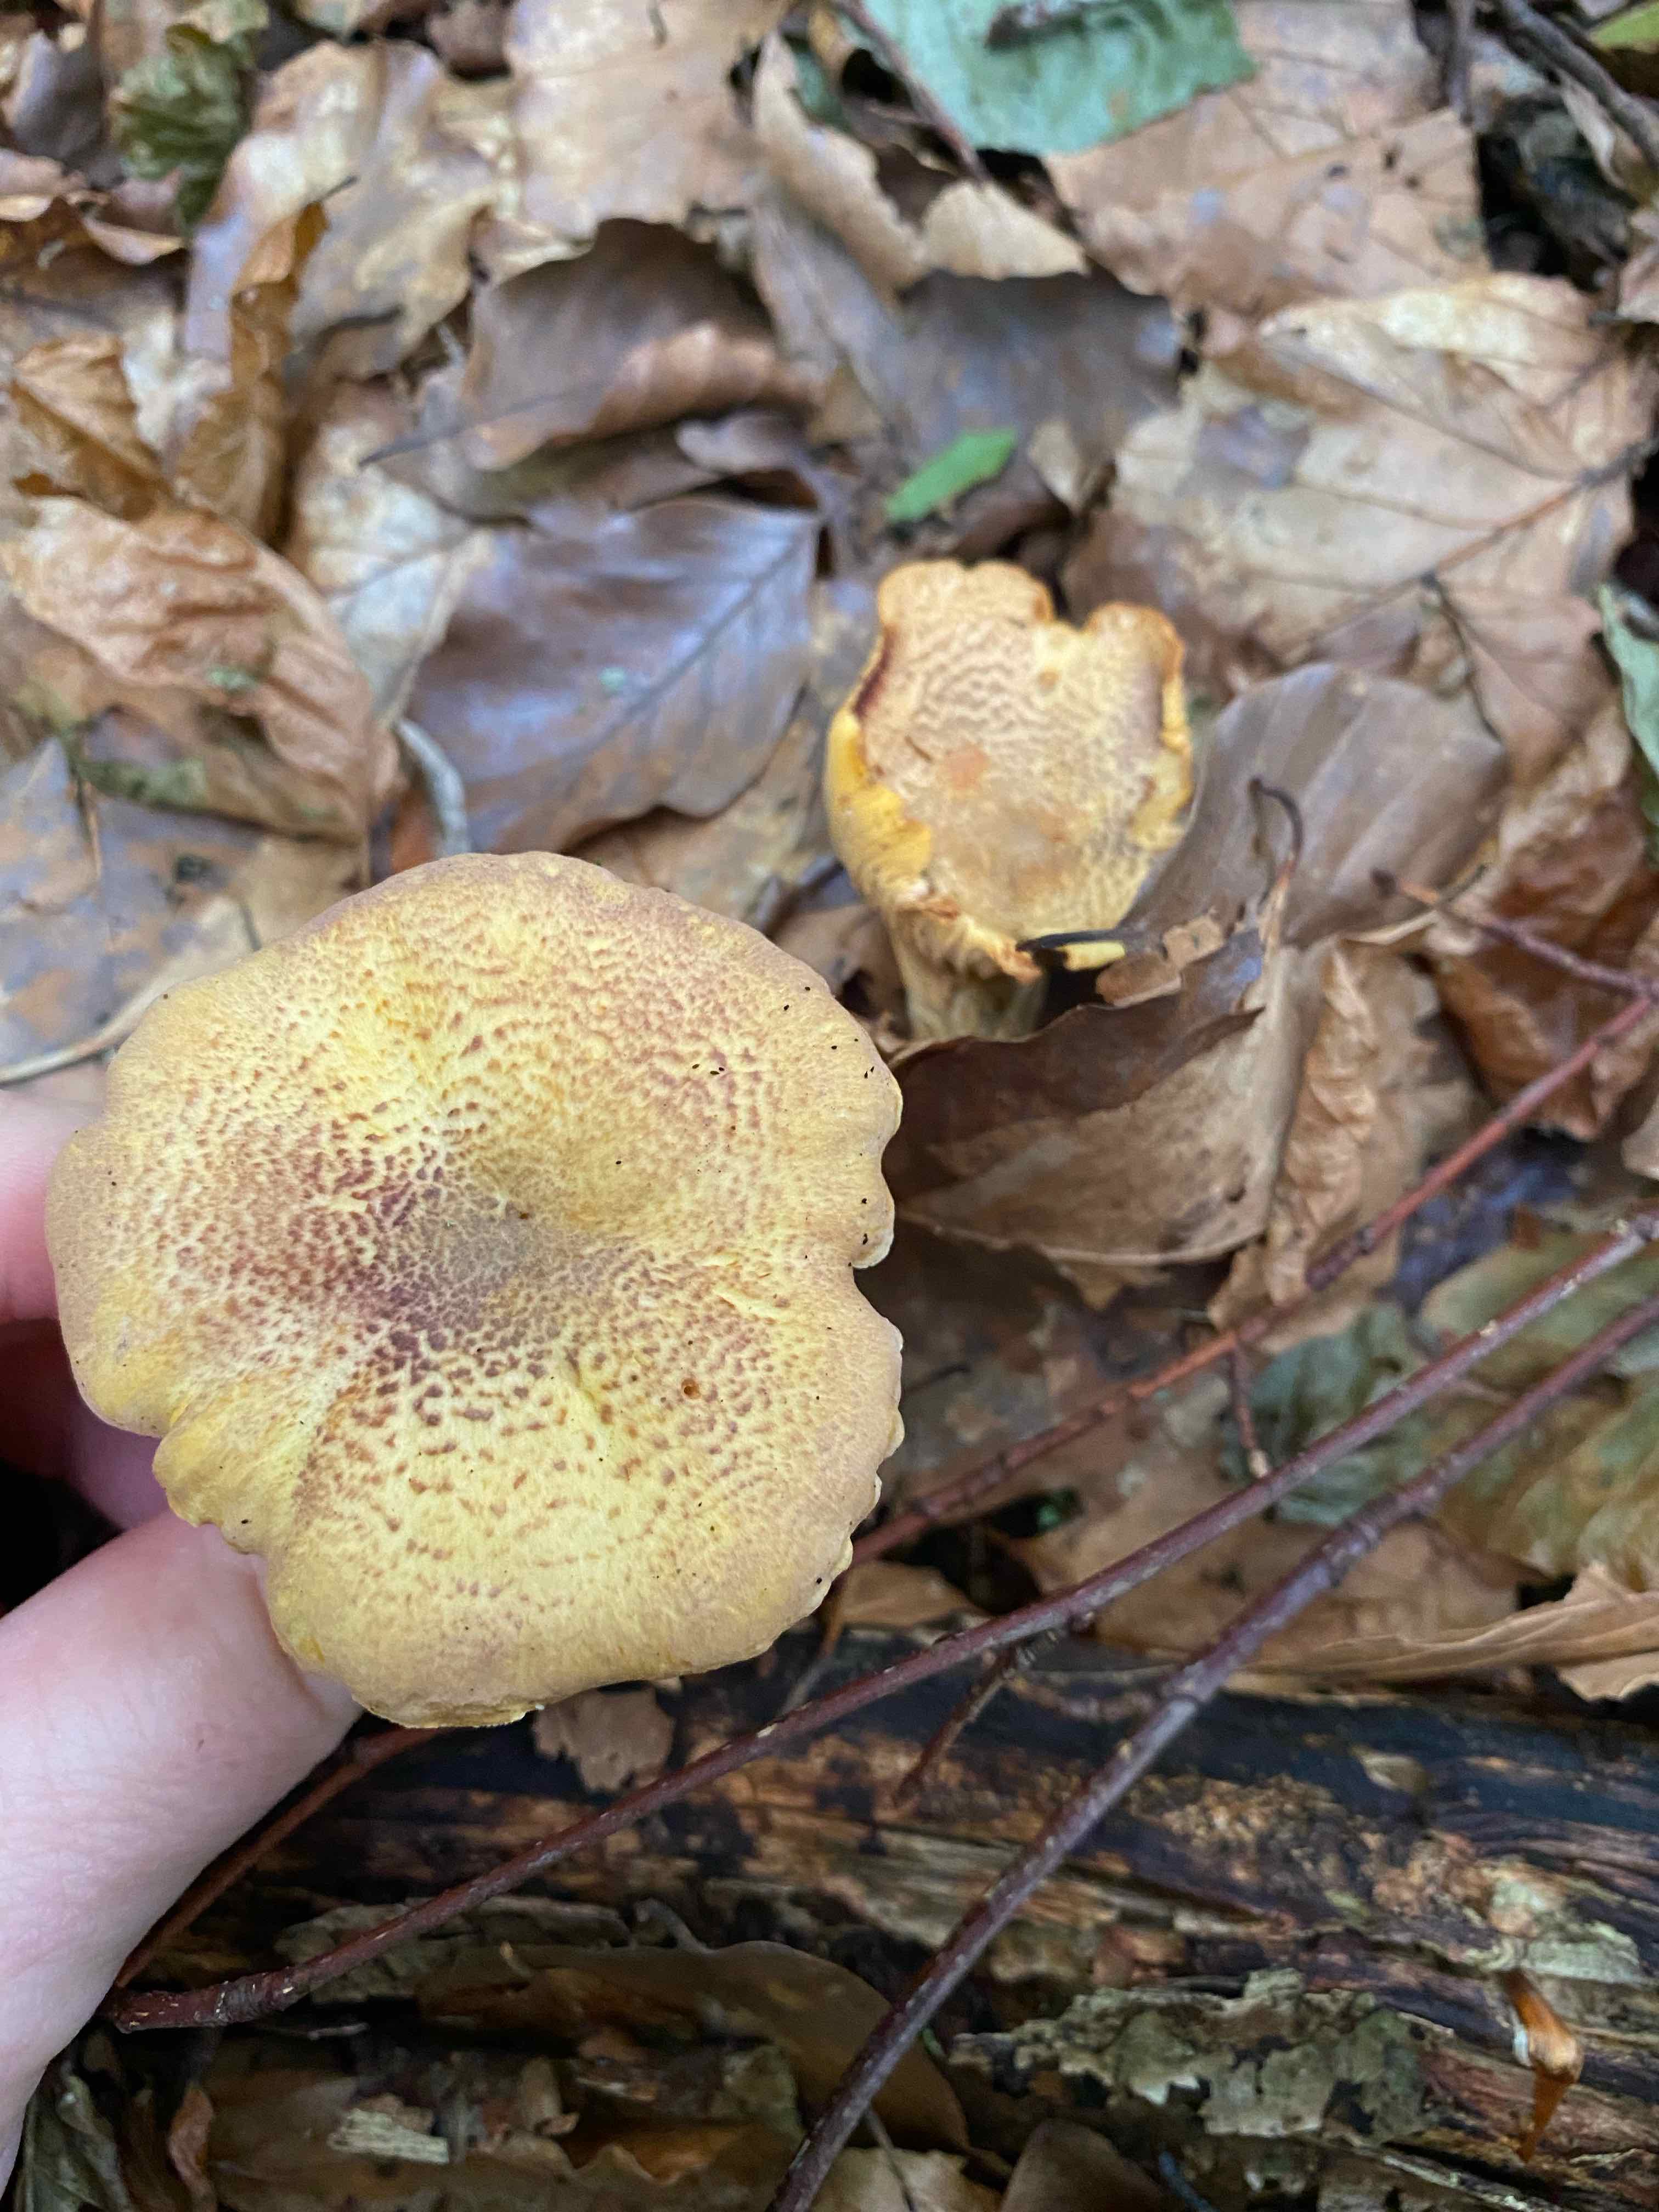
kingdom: Fungi
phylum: Basidiomycota
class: Agaricomycetes
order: Cantharellales
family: Hydnaceae
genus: Cantharellus
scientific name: Cantharellus amethysteus
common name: ametyst-kantarel
